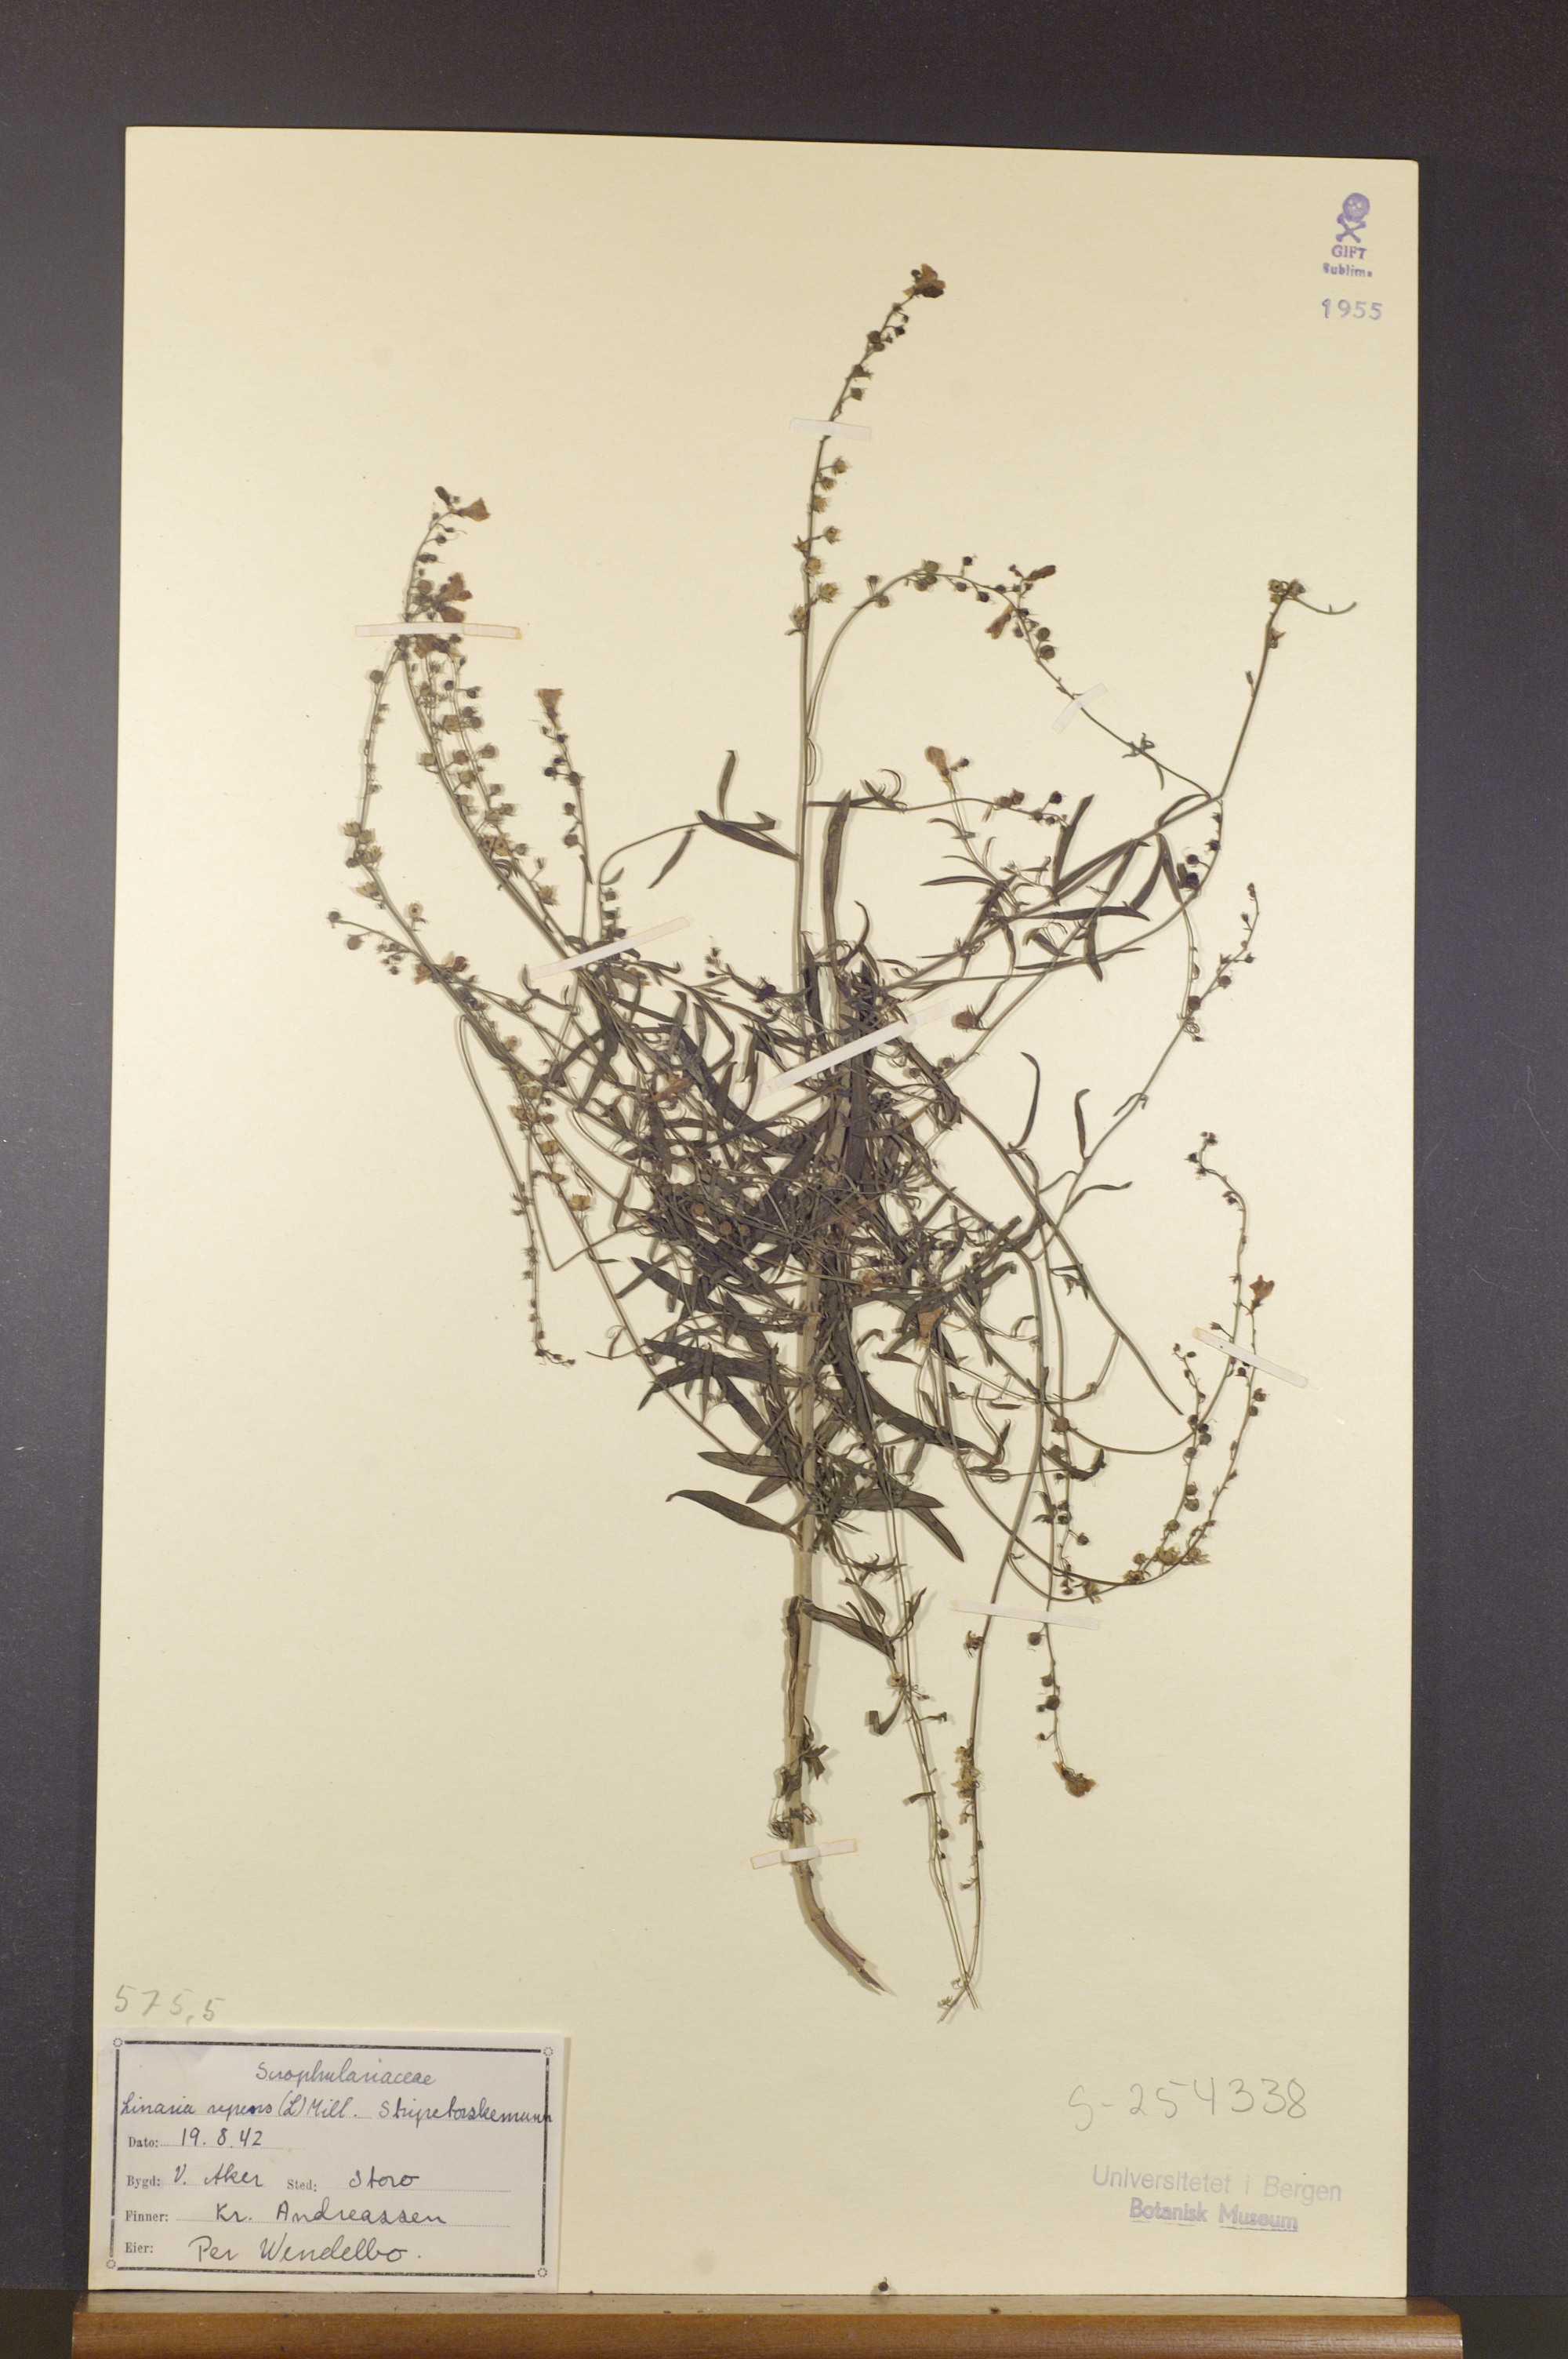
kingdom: Plantae
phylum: Tracheophyta
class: Magnoliopsida
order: Lamiales
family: Plantaginaceae
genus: Linaria
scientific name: Linaria repens
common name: Pale toadflax
